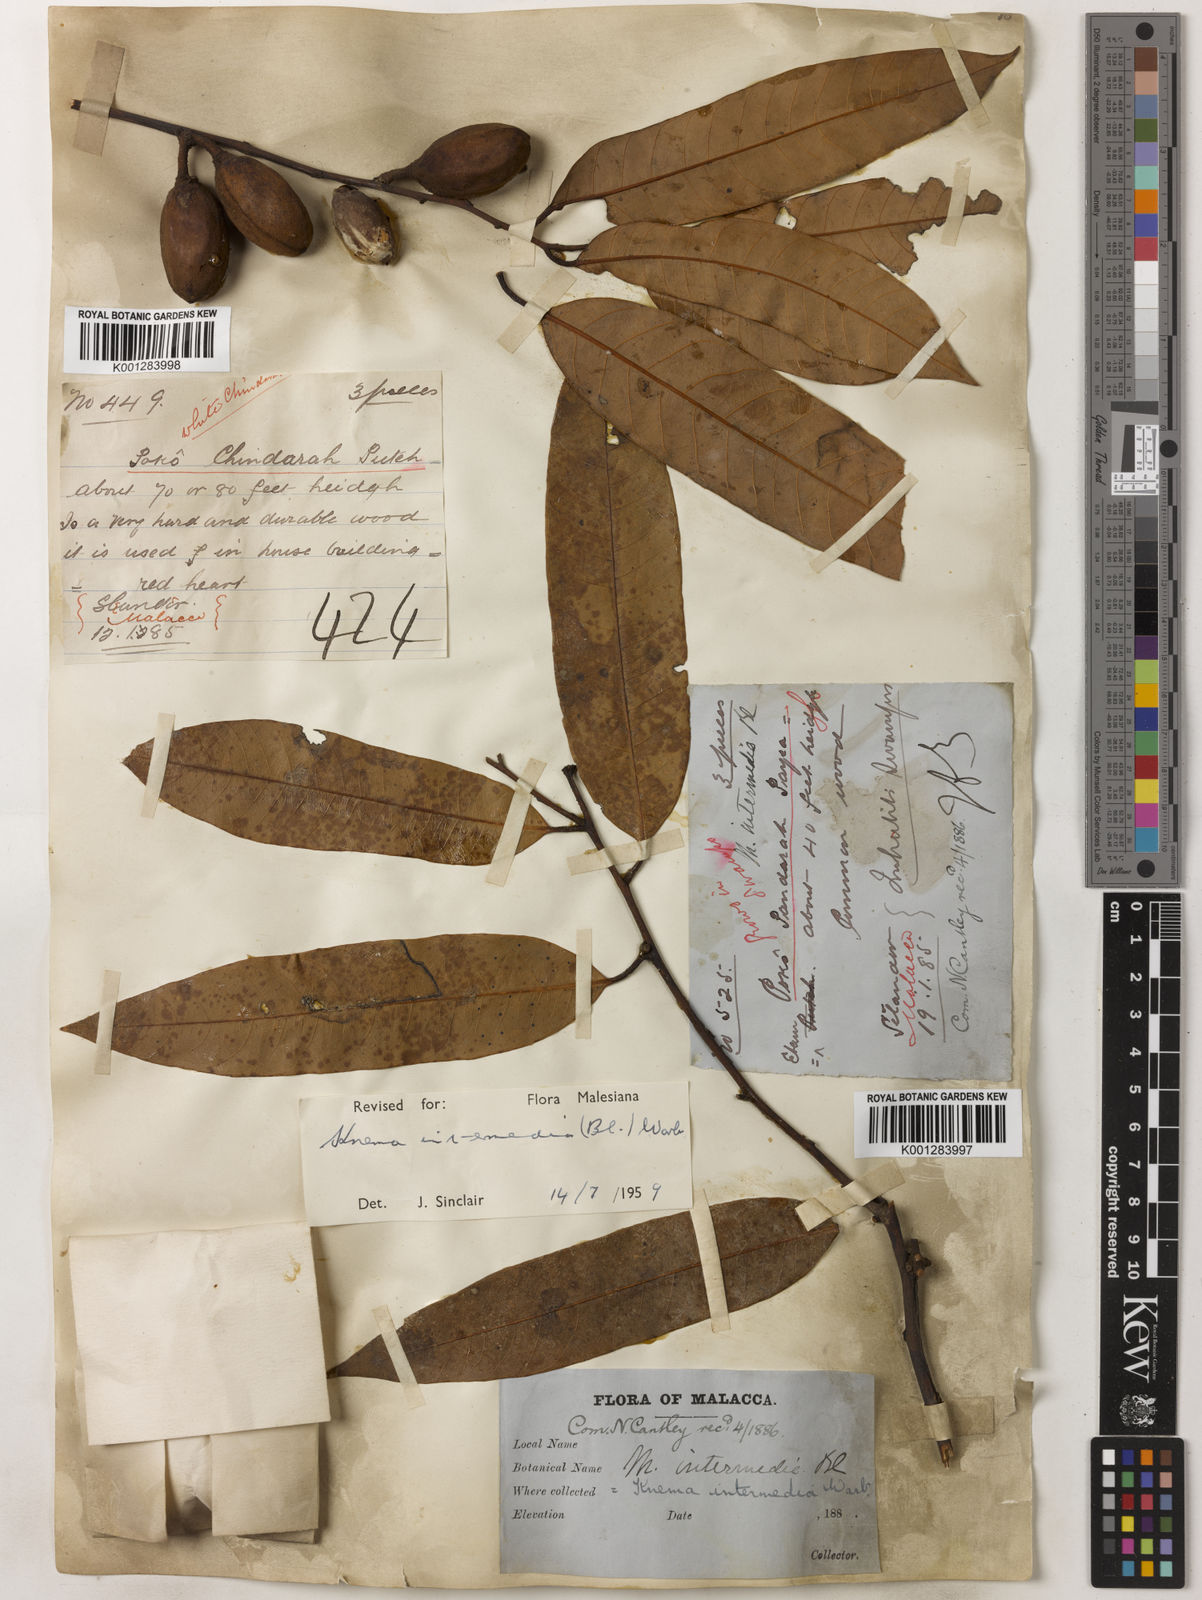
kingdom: Plantae
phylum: Tracheophyta
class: Magnoliopsida
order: Magnoliales
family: Myristicaceae
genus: Knema
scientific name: Knema intermedia
